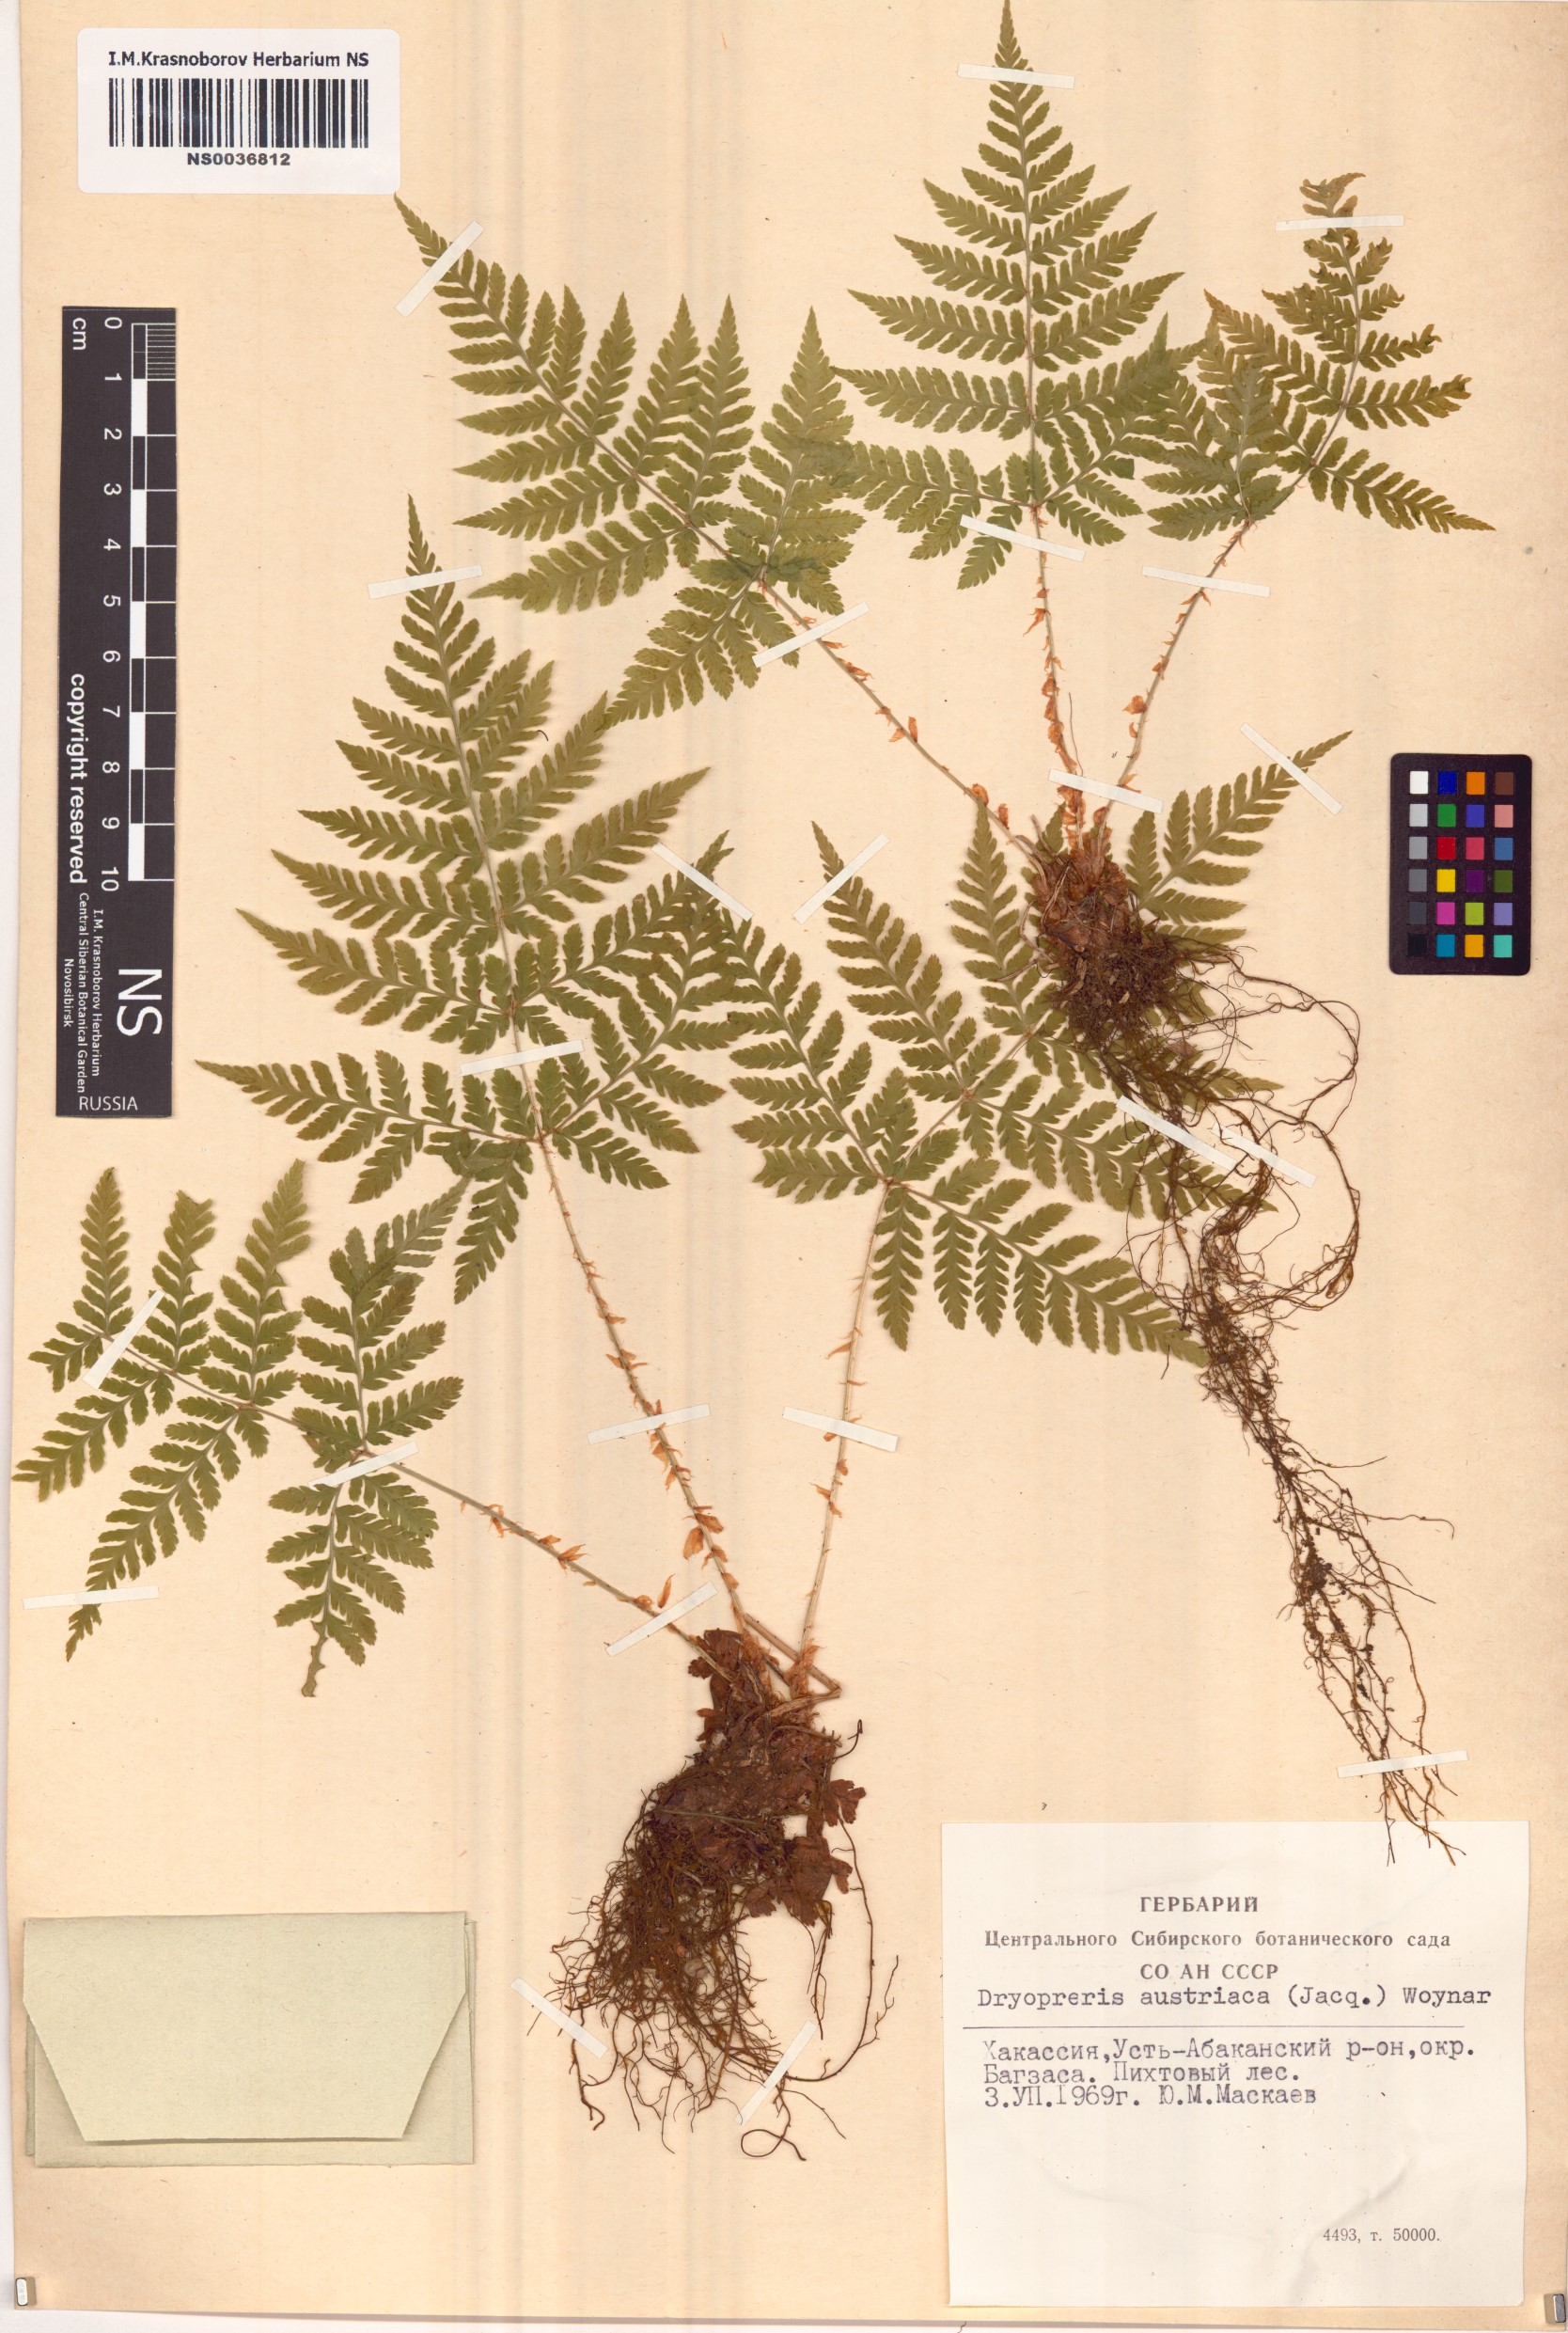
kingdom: Plantae
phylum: Tracheophyta
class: Polypodiopsida
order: Polypodiales
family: Dryopteridaceae
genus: Dryopteris
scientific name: Dryopteris dilatata
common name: Broad buckler-fern
